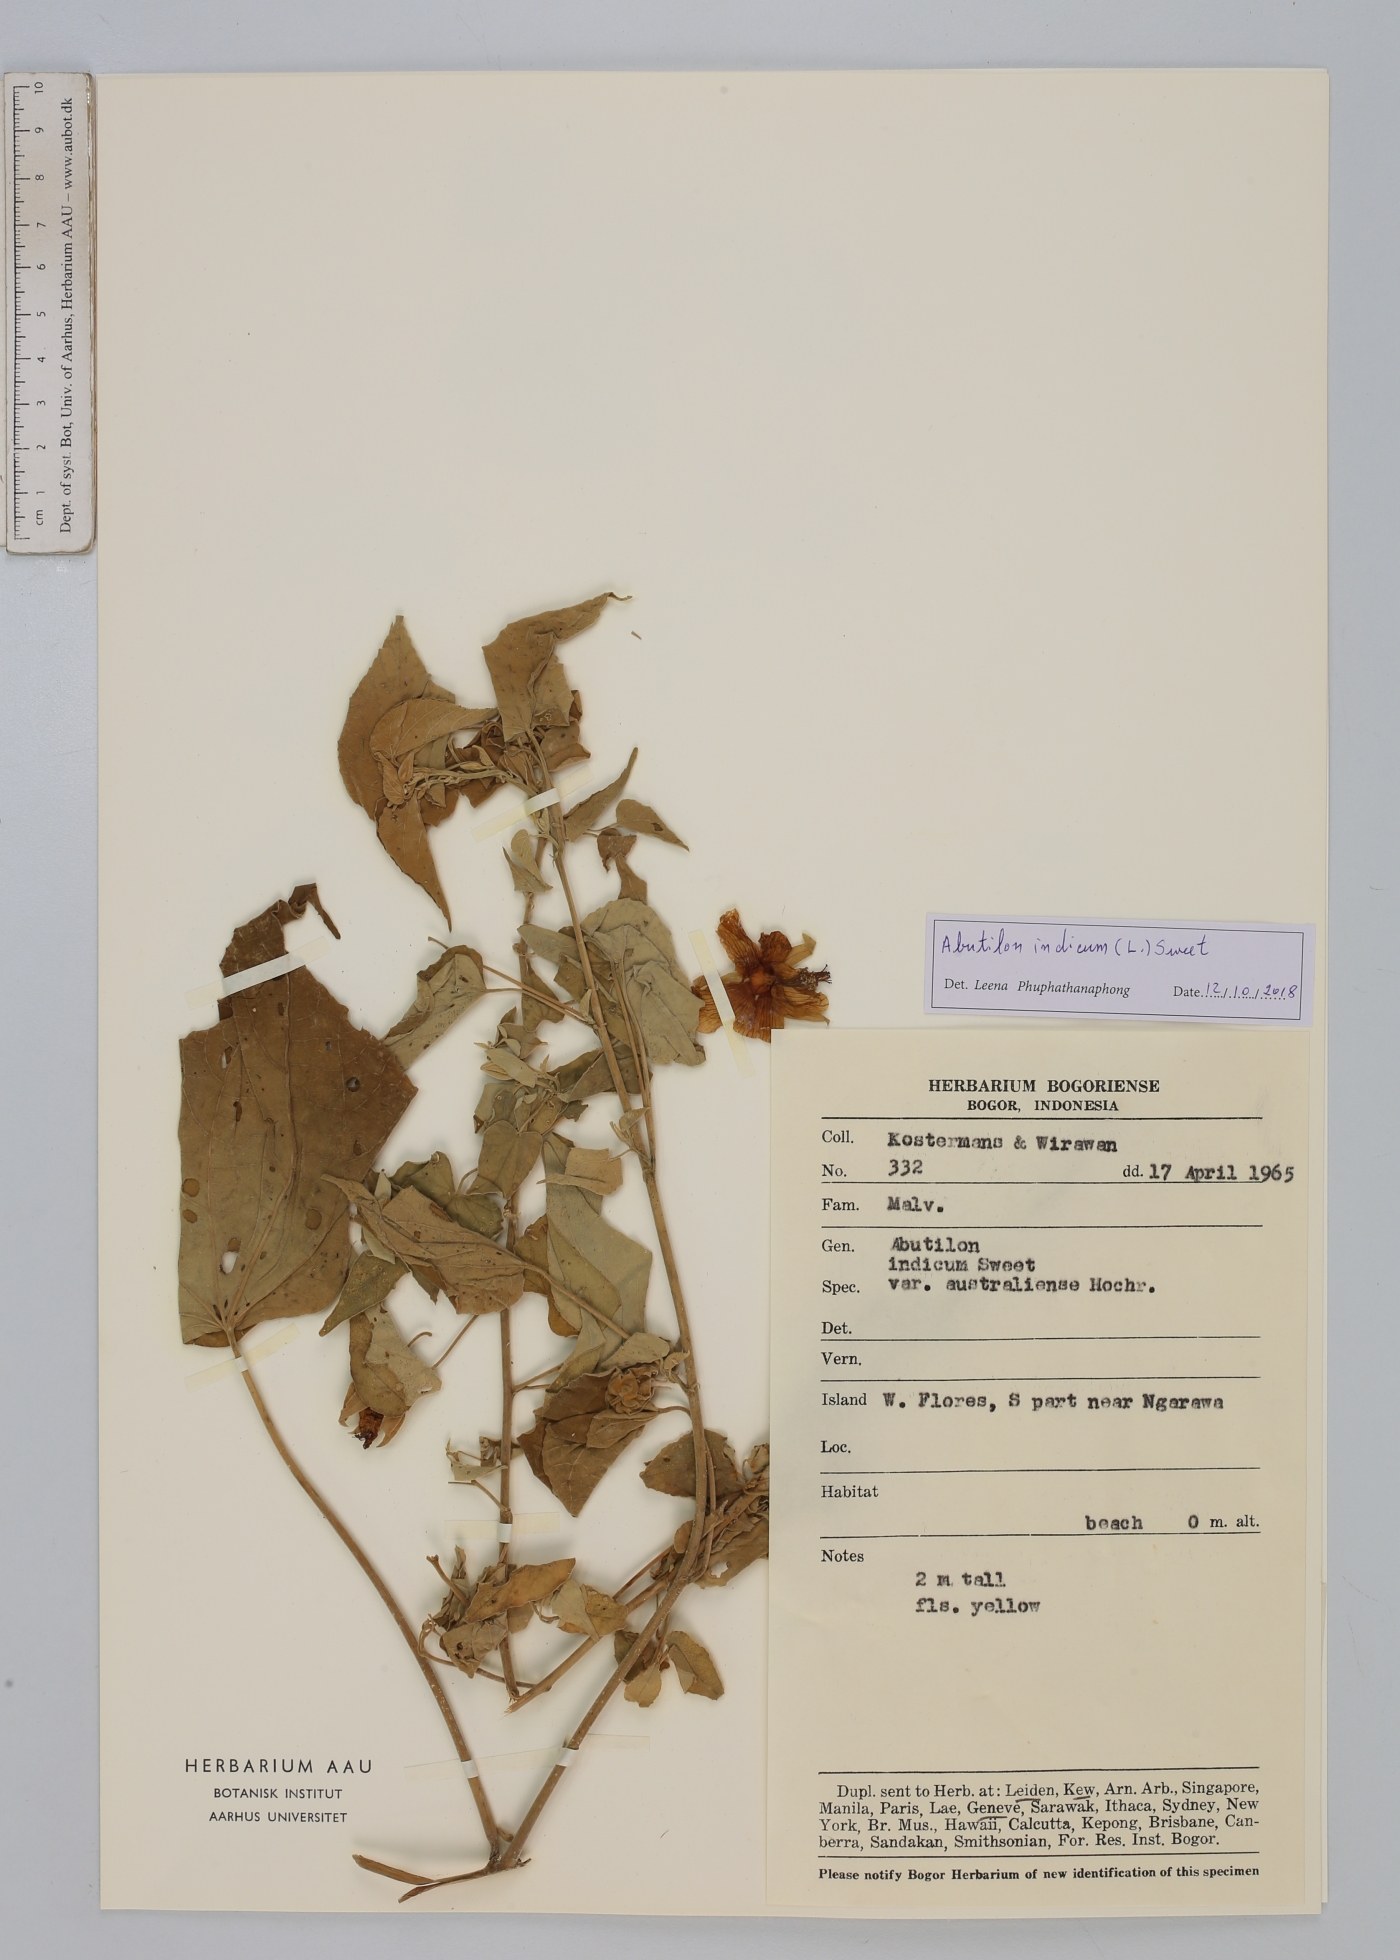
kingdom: Plantae
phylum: Tracheophyta
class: Magnoliopsida
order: Malvales
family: Malvaceae
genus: Abutilon
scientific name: Abutilon indicum
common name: Indian abutilon
